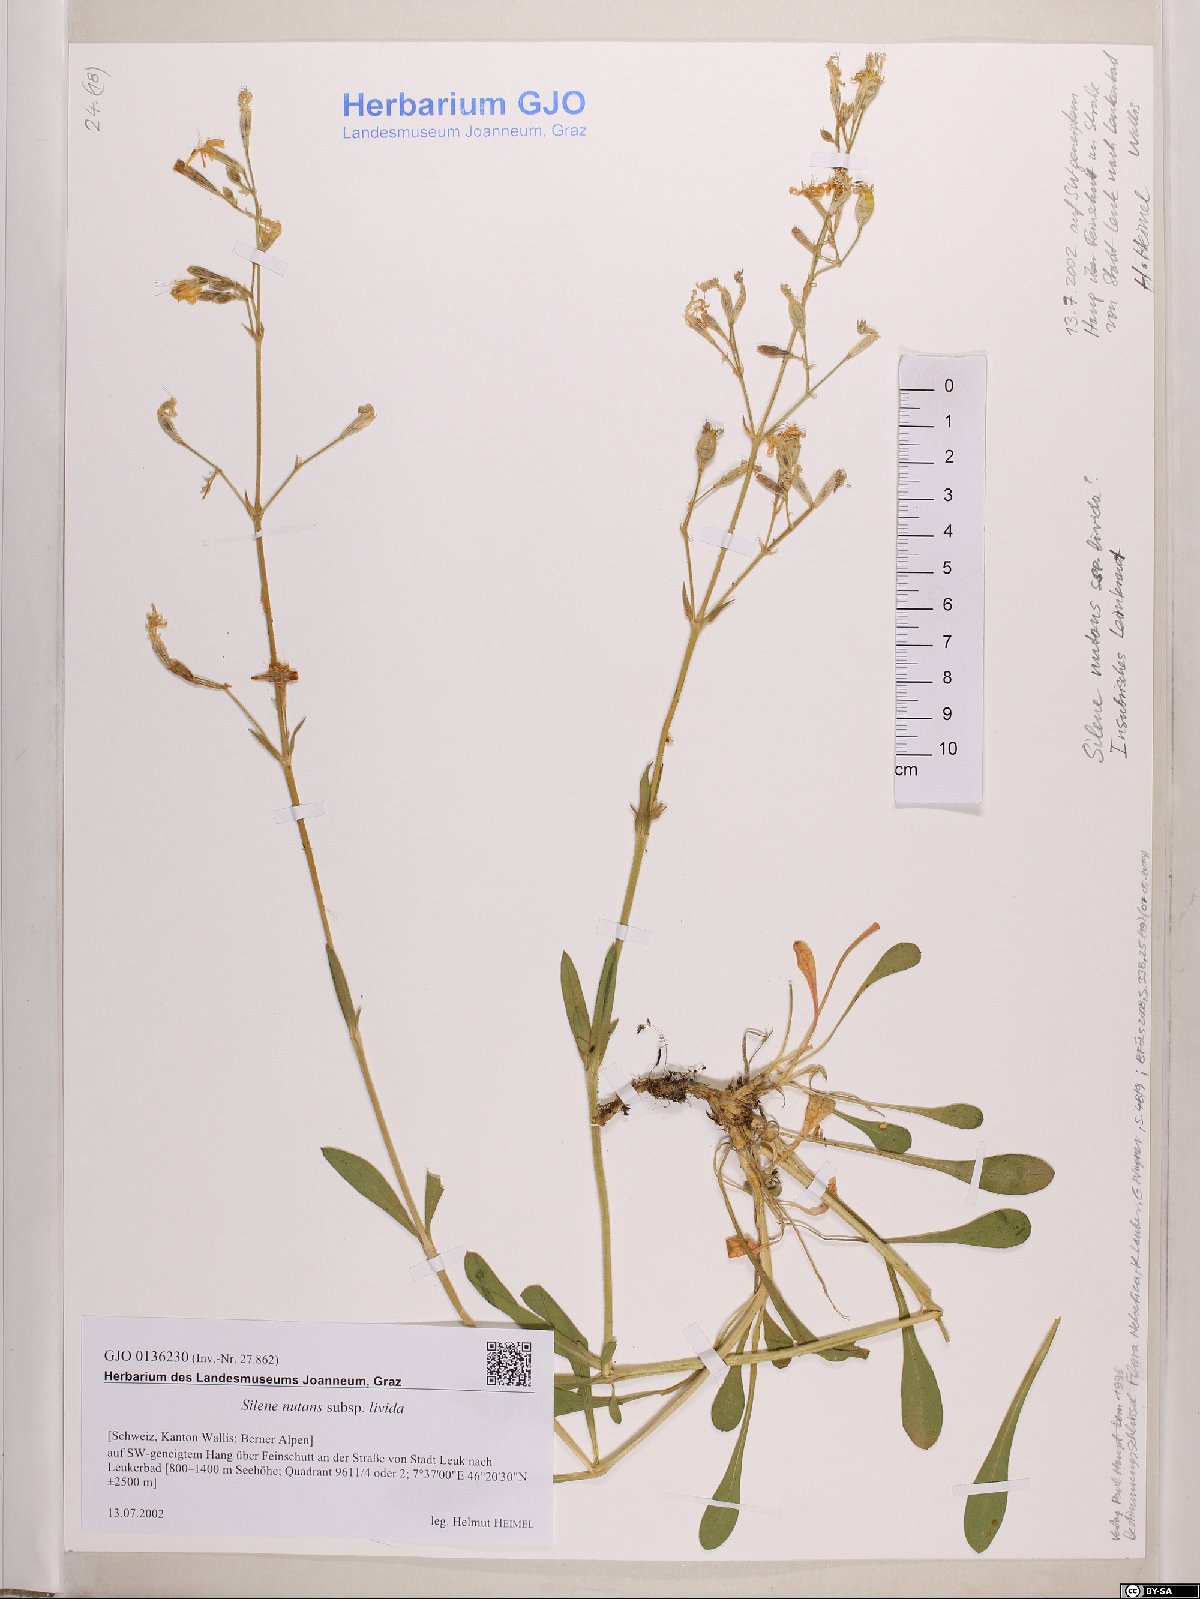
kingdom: Plantae
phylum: Tracheophyta
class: Magnoliopsida
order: Caryophyllales
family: Caryophyllaceae
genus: Silene
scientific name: Silene nutans
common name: Nottingham catchfly
